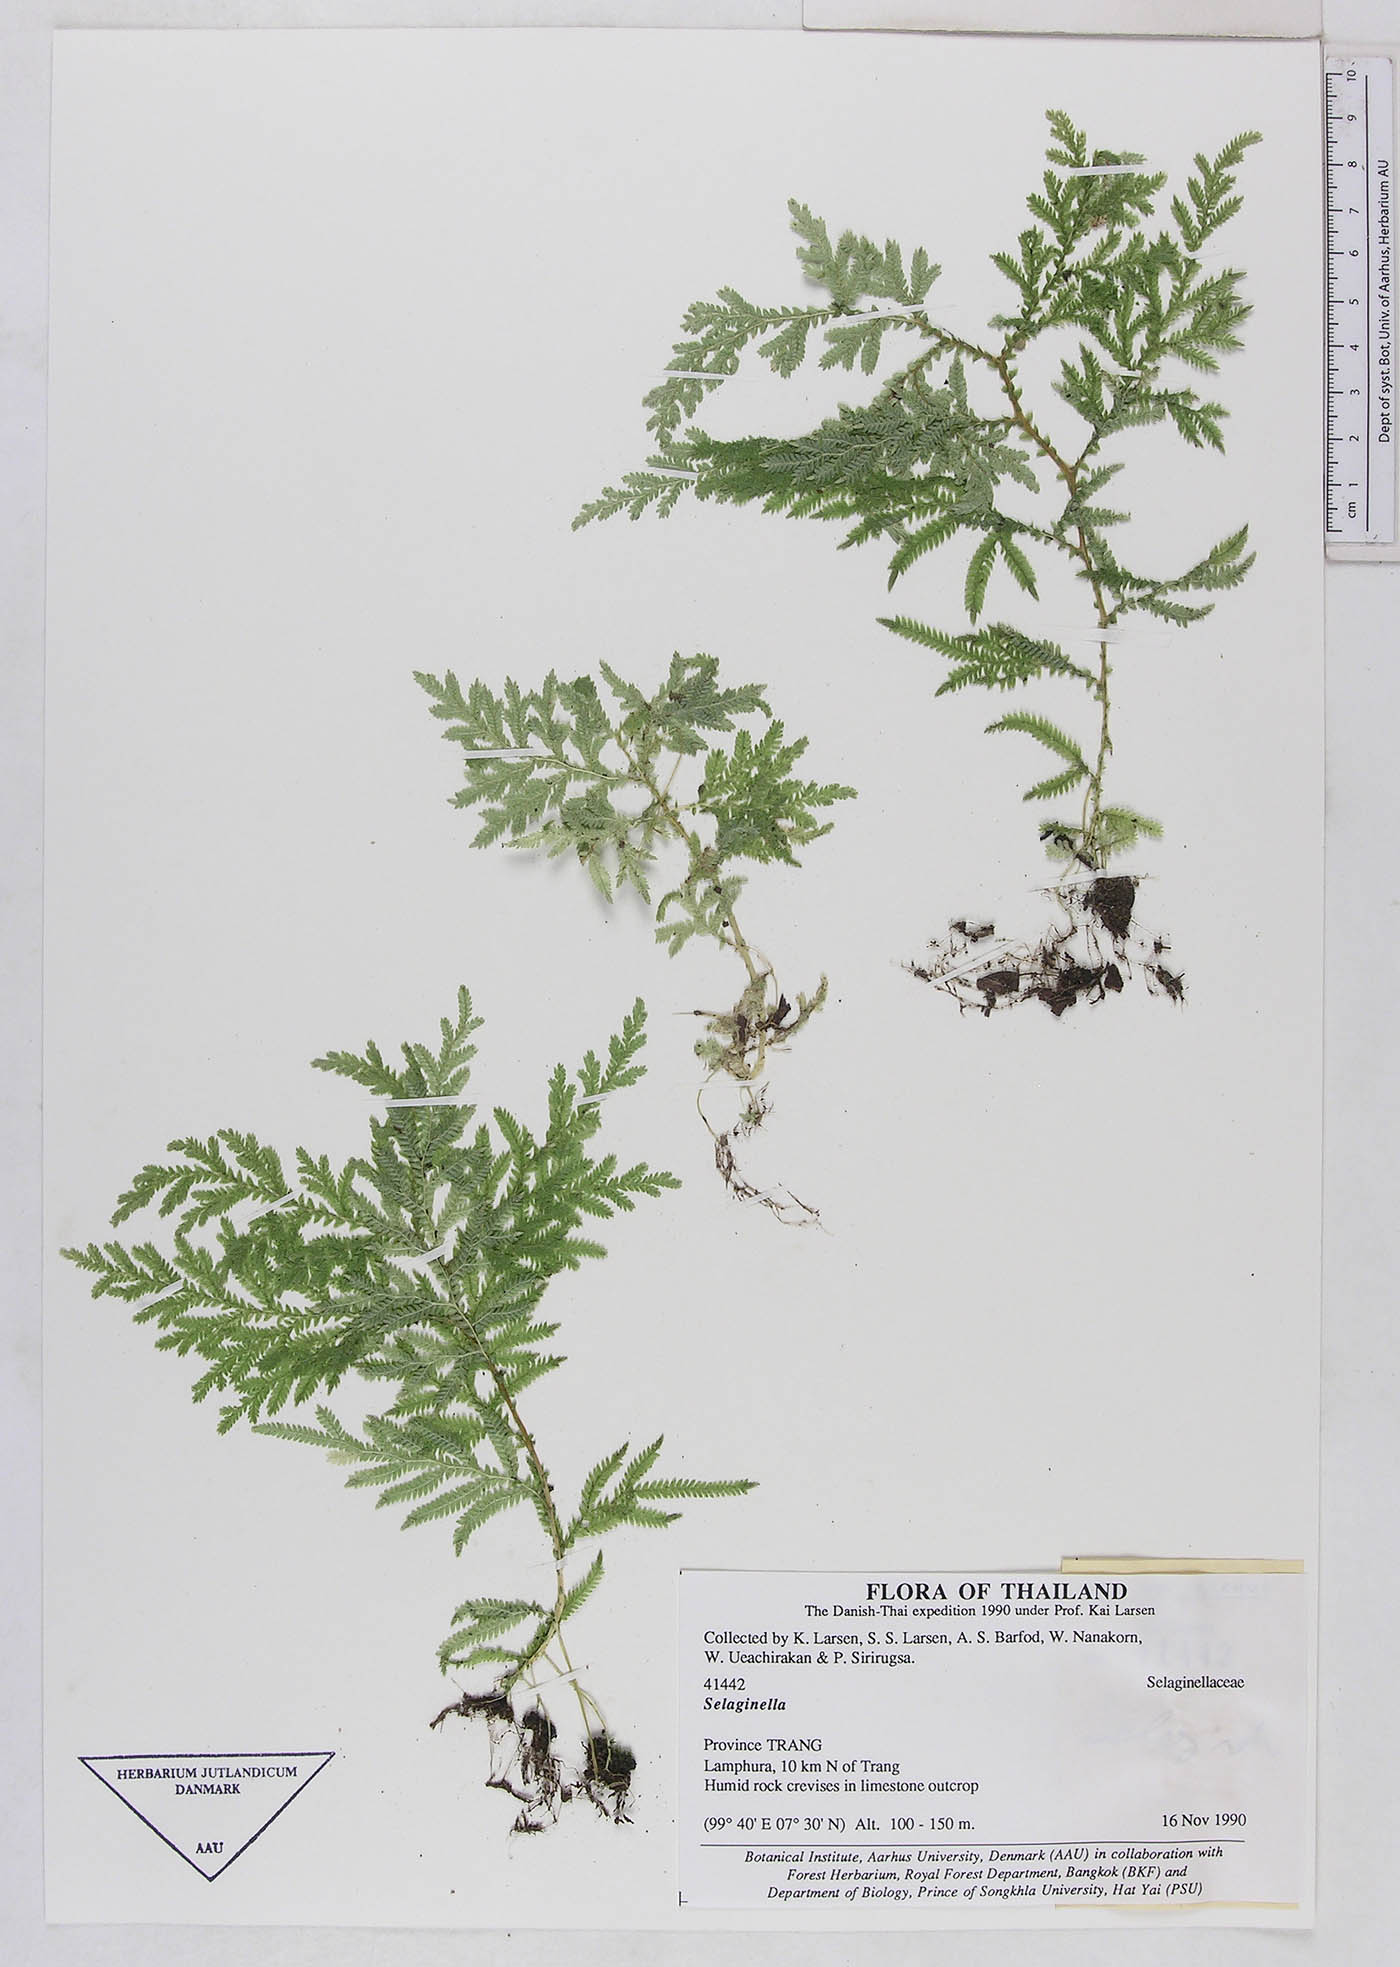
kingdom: Plantae
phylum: Tracheophyta
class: Lycopodiopsida
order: Selaginellales
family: Selaginellaceae
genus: Selaginella
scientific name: Selaginella
